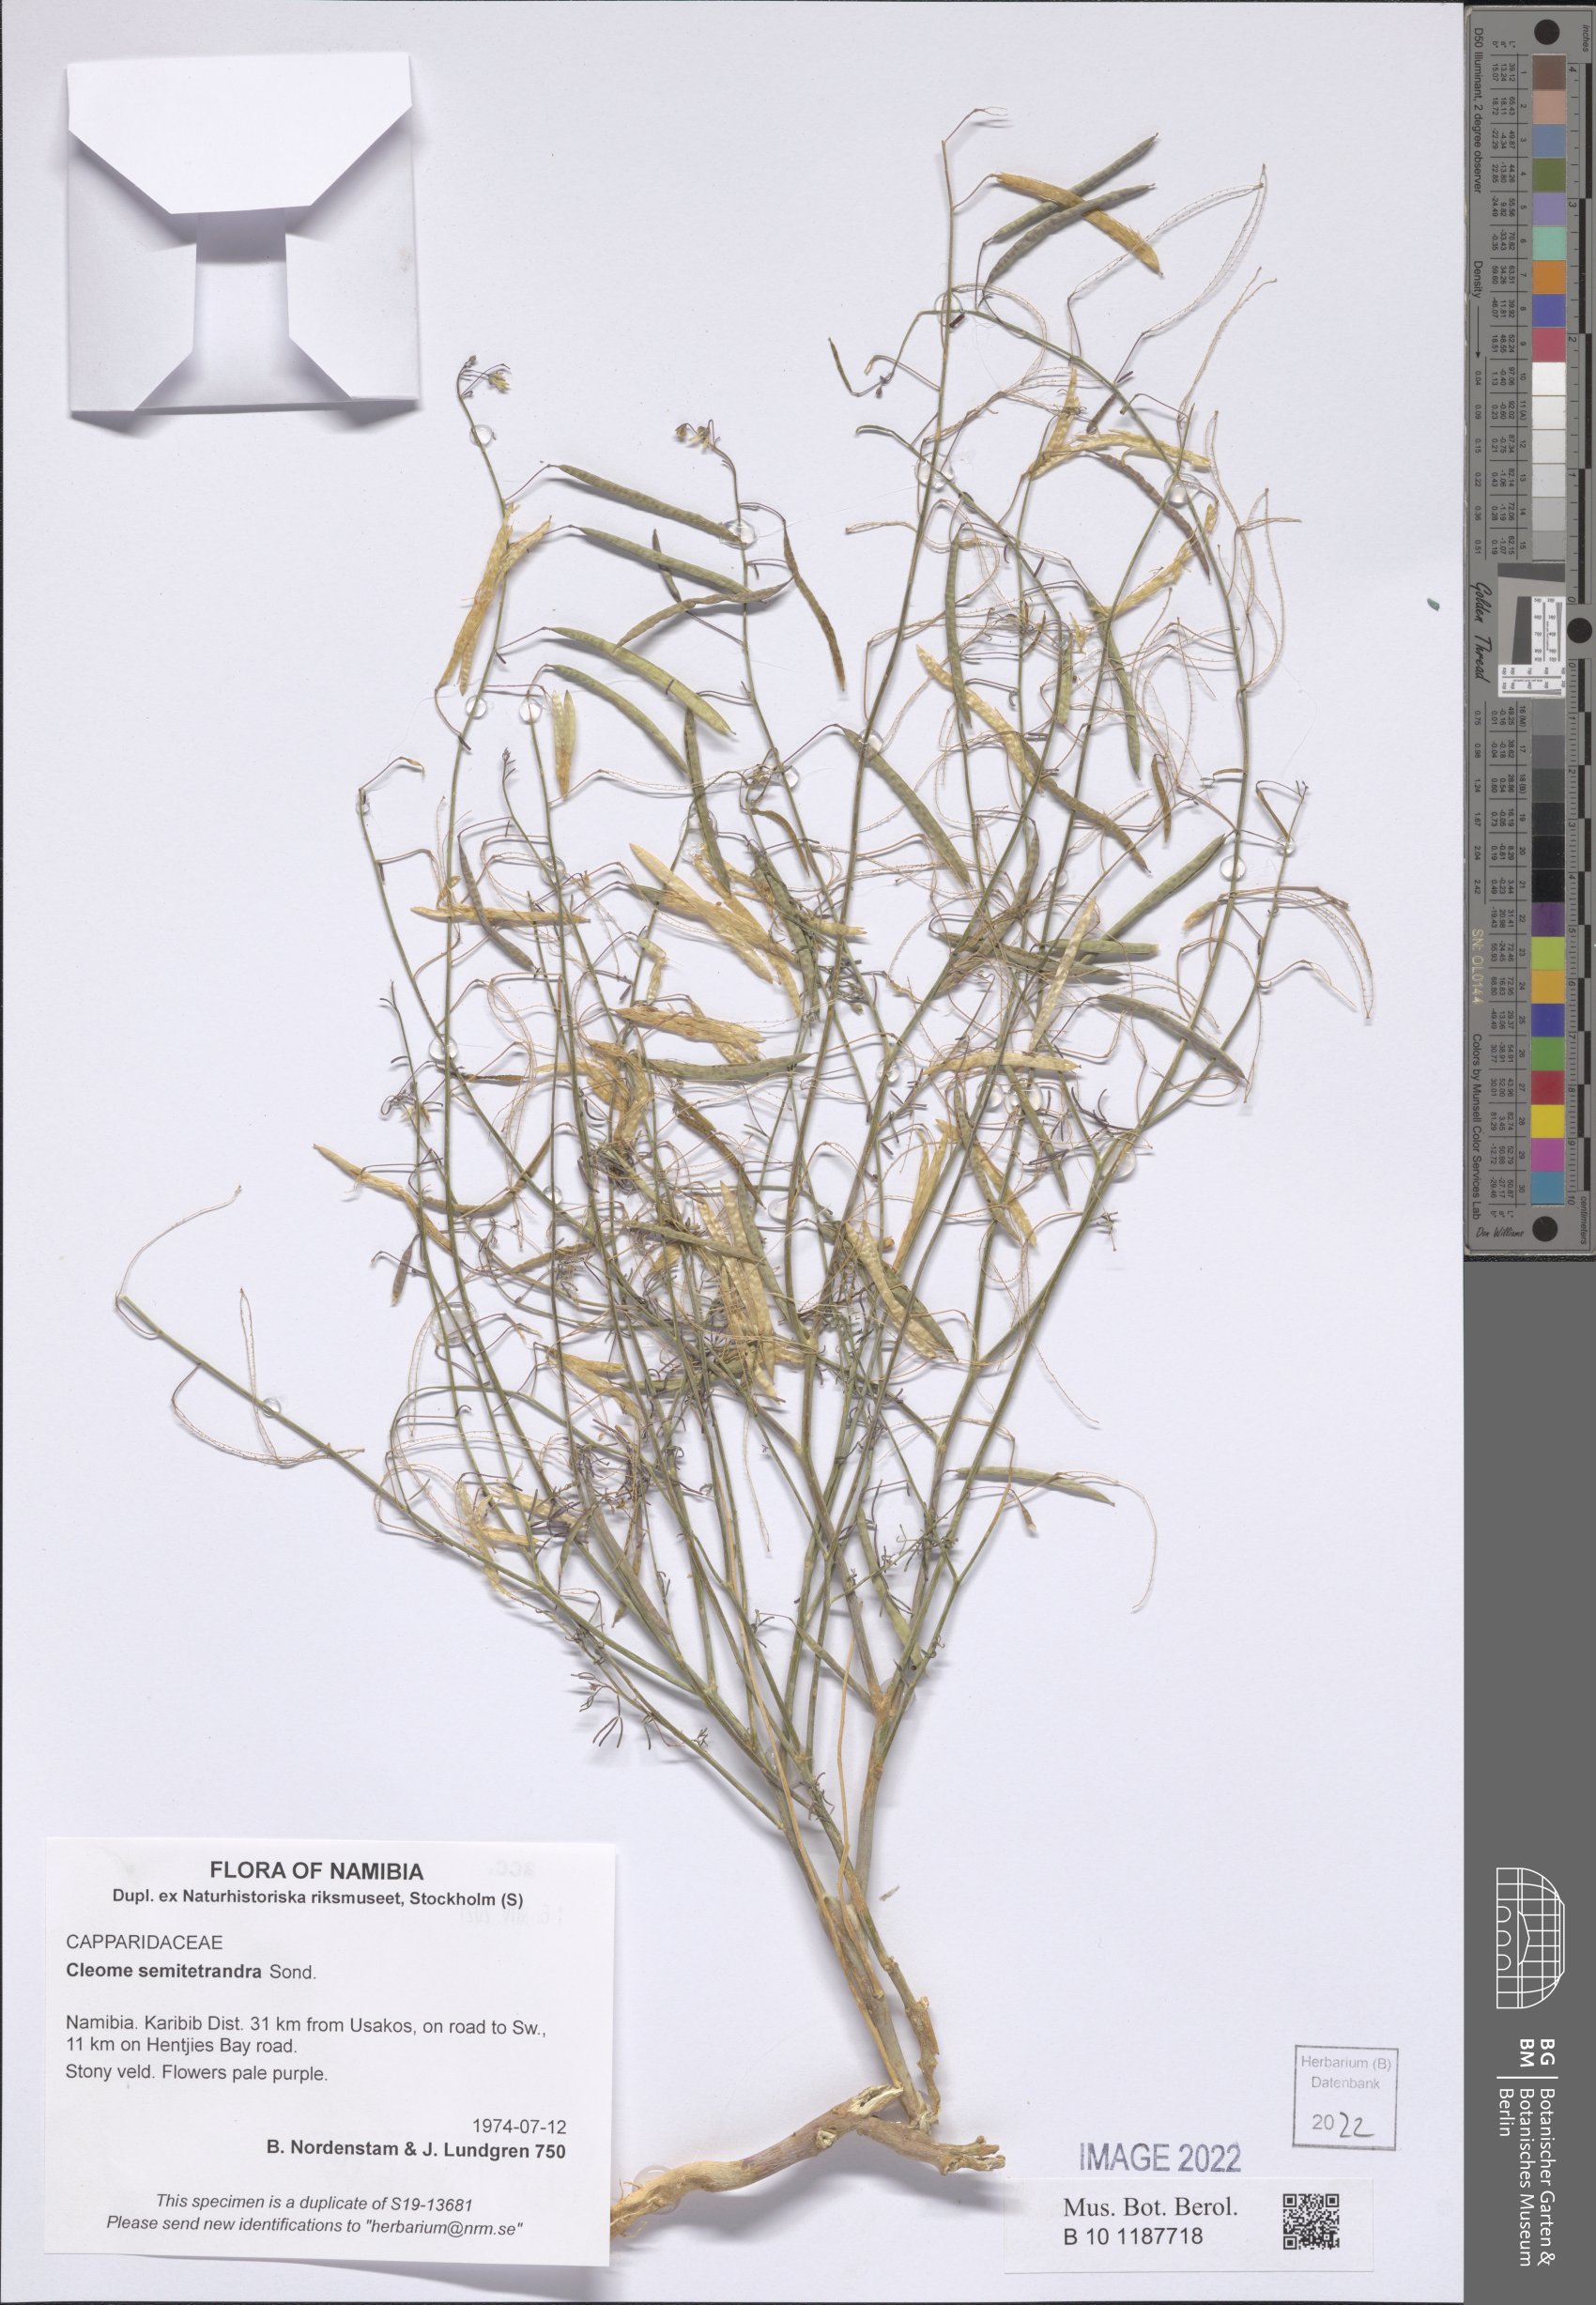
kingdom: Plantae
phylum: Tracheophyta
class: Magnoliopsida
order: Brassicales
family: Cleomaceae
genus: Coalisina
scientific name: Coalisina semitetrandra
